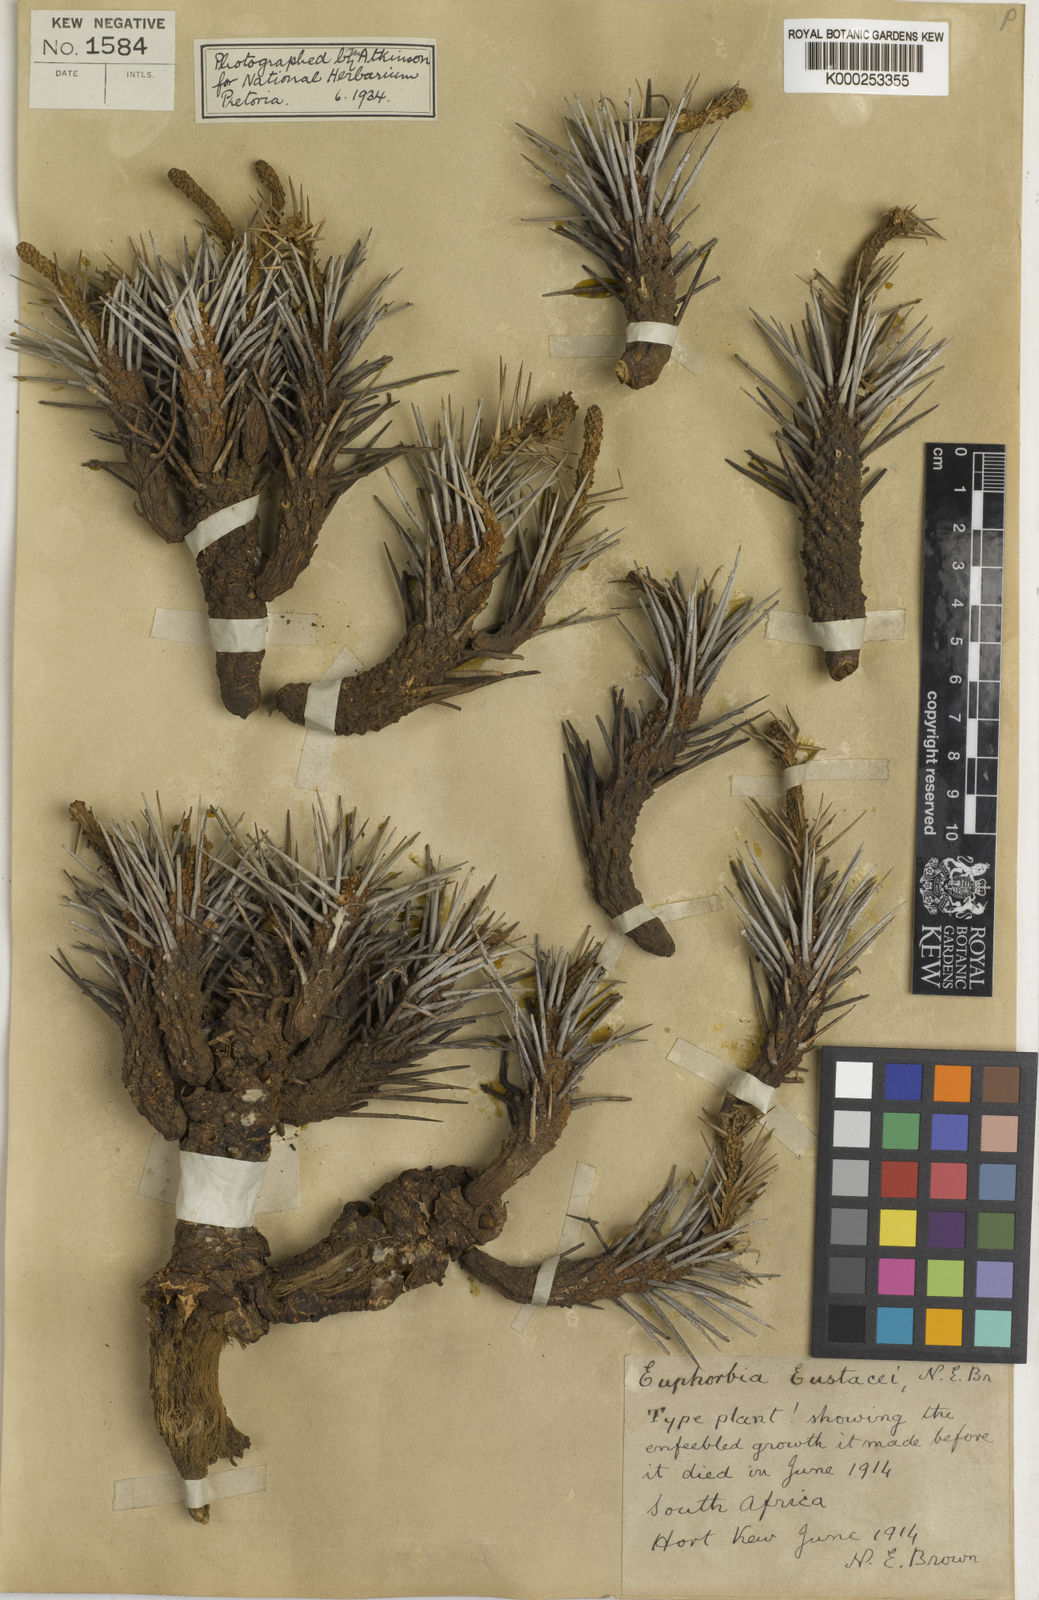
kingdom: Plantae
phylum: Tracheophyta
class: Magnoliopsida
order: Malpighiales
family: Euphorbiaceae
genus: Euphorbia
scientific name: Euphorbia eustacei
